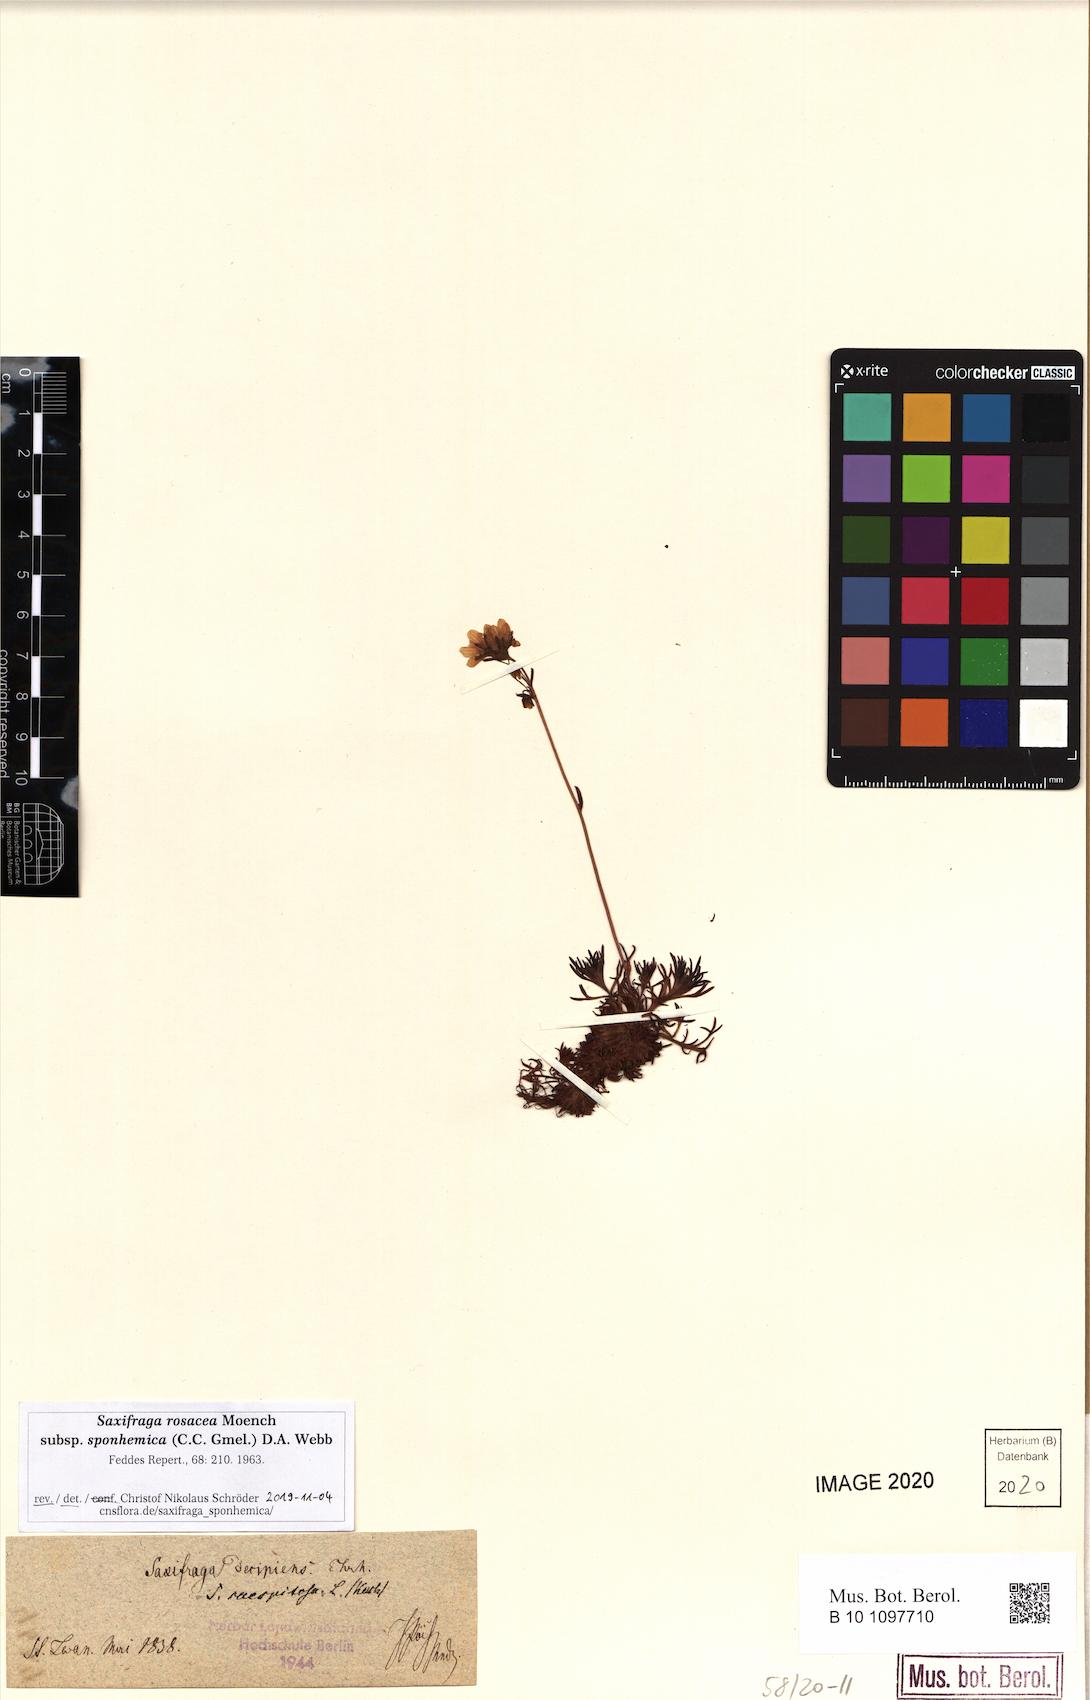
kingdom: Plantae
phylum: Tracheophyta
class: Magnoliopsida
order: Saxifragales
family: Saxifragaceae
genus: Saxifraga
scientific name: Saxifraga rosacea
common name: Irish saxifrage
